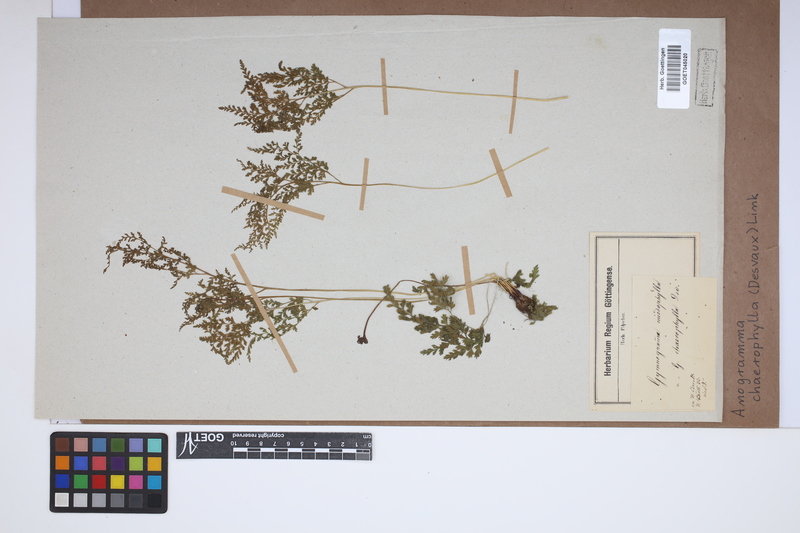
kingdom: Plantae
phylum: Tracheophyta
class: Polypodiopsida
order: Polypodiales
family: Pteridaceae
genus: Gastoniella
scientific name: Gastoniella chaerophylla
